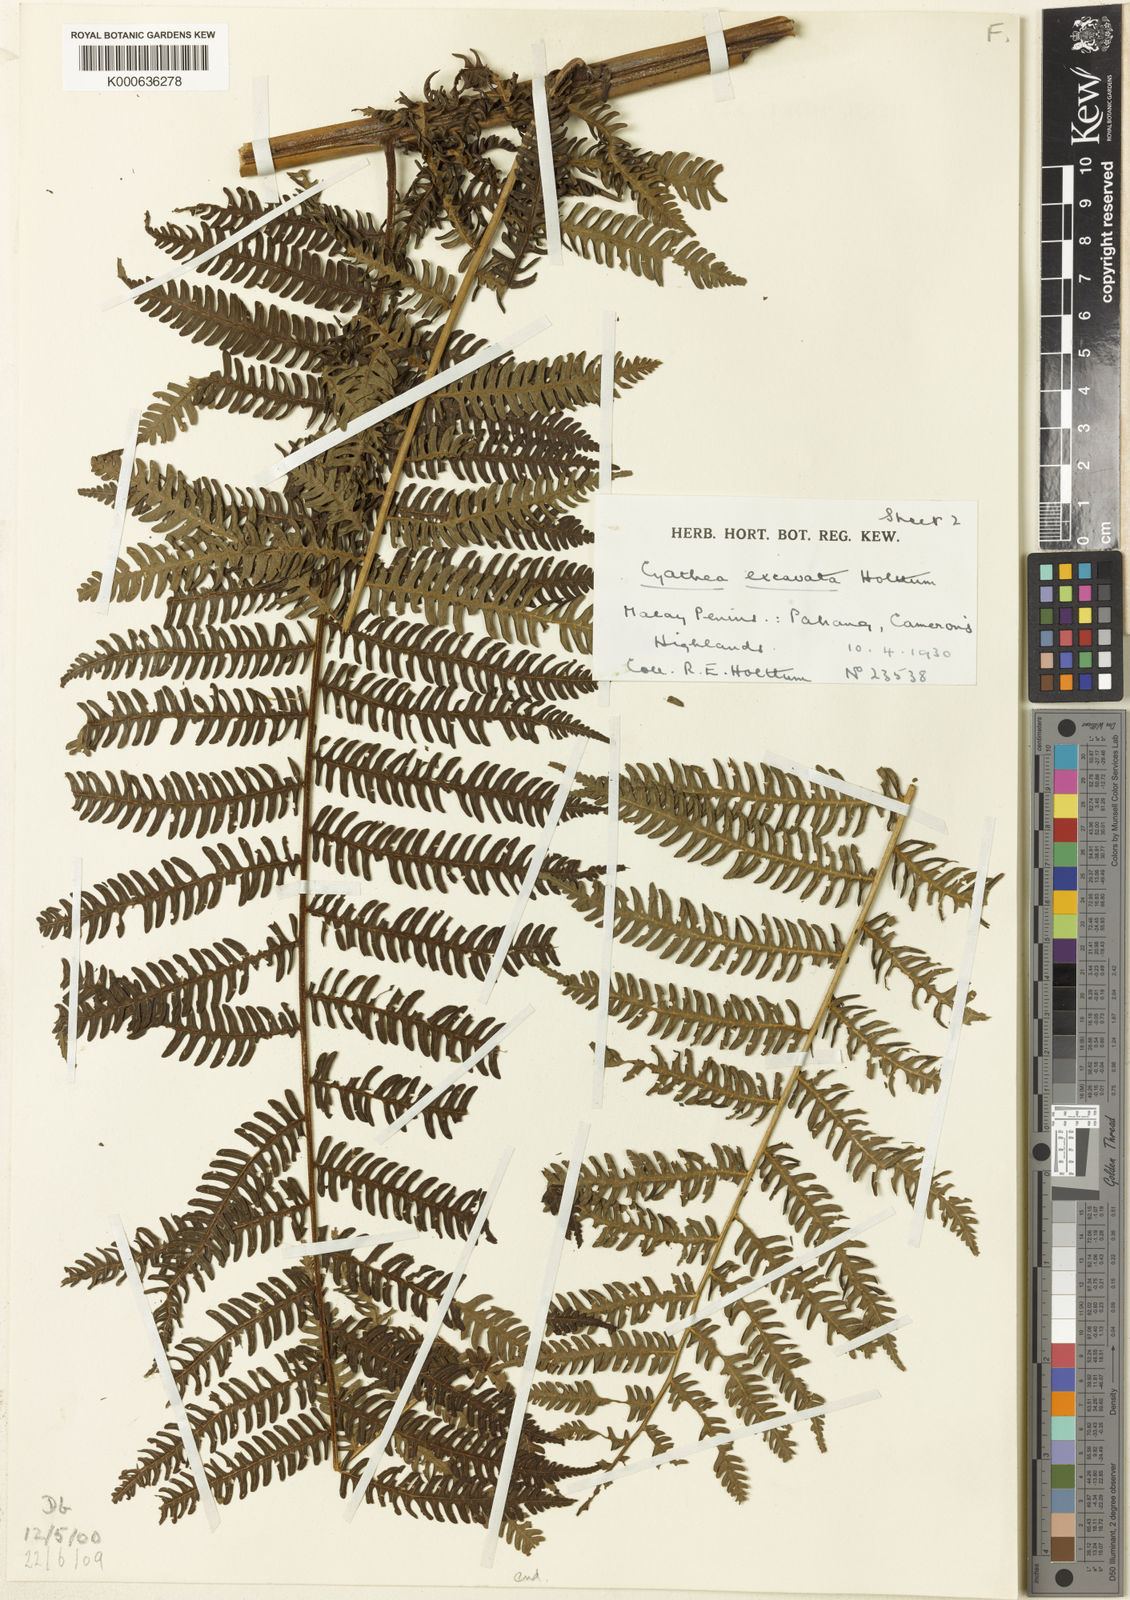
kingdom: Plantae
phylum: Tracheophyta
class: Polypodiopsida
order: Cyatheales
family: Cyatheaceae
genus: Alsophila
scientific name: Alsophila excavata
